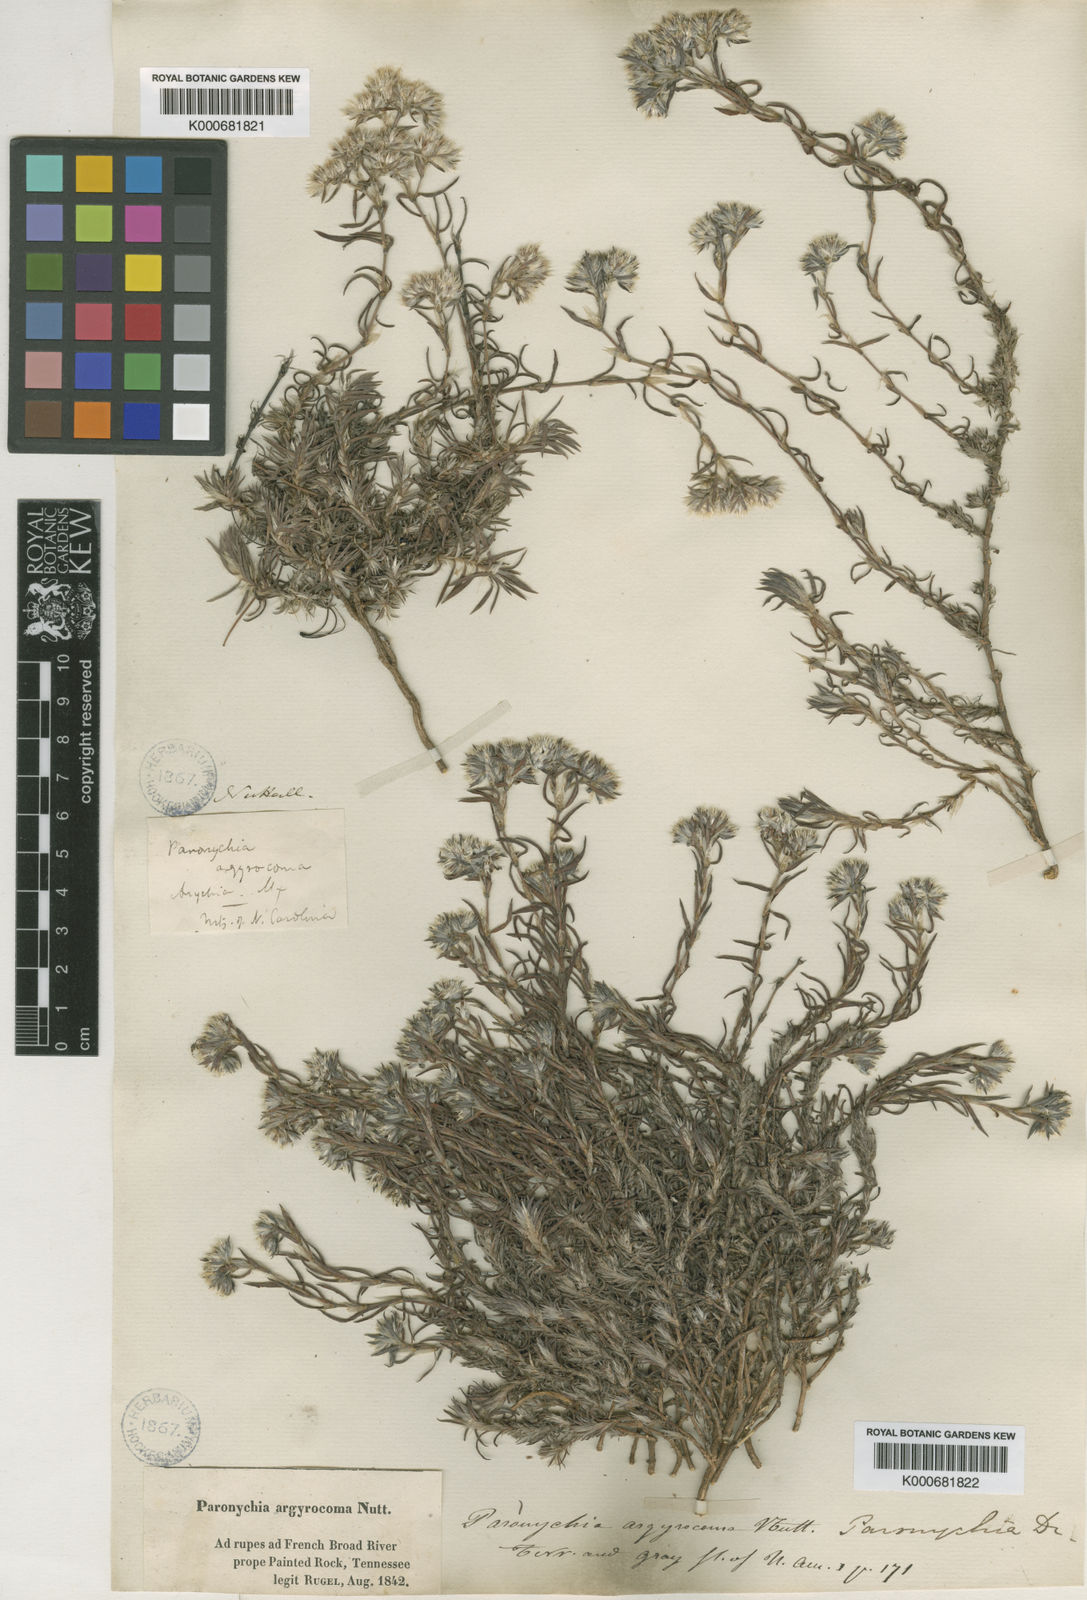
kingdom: Plantae
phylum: Tracheophyta
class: Magnoliopsida
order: Caryophyllales
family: Caryophyllaceae
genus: Paronychia
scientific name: Paronychia argyrocoma
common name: Silverling
